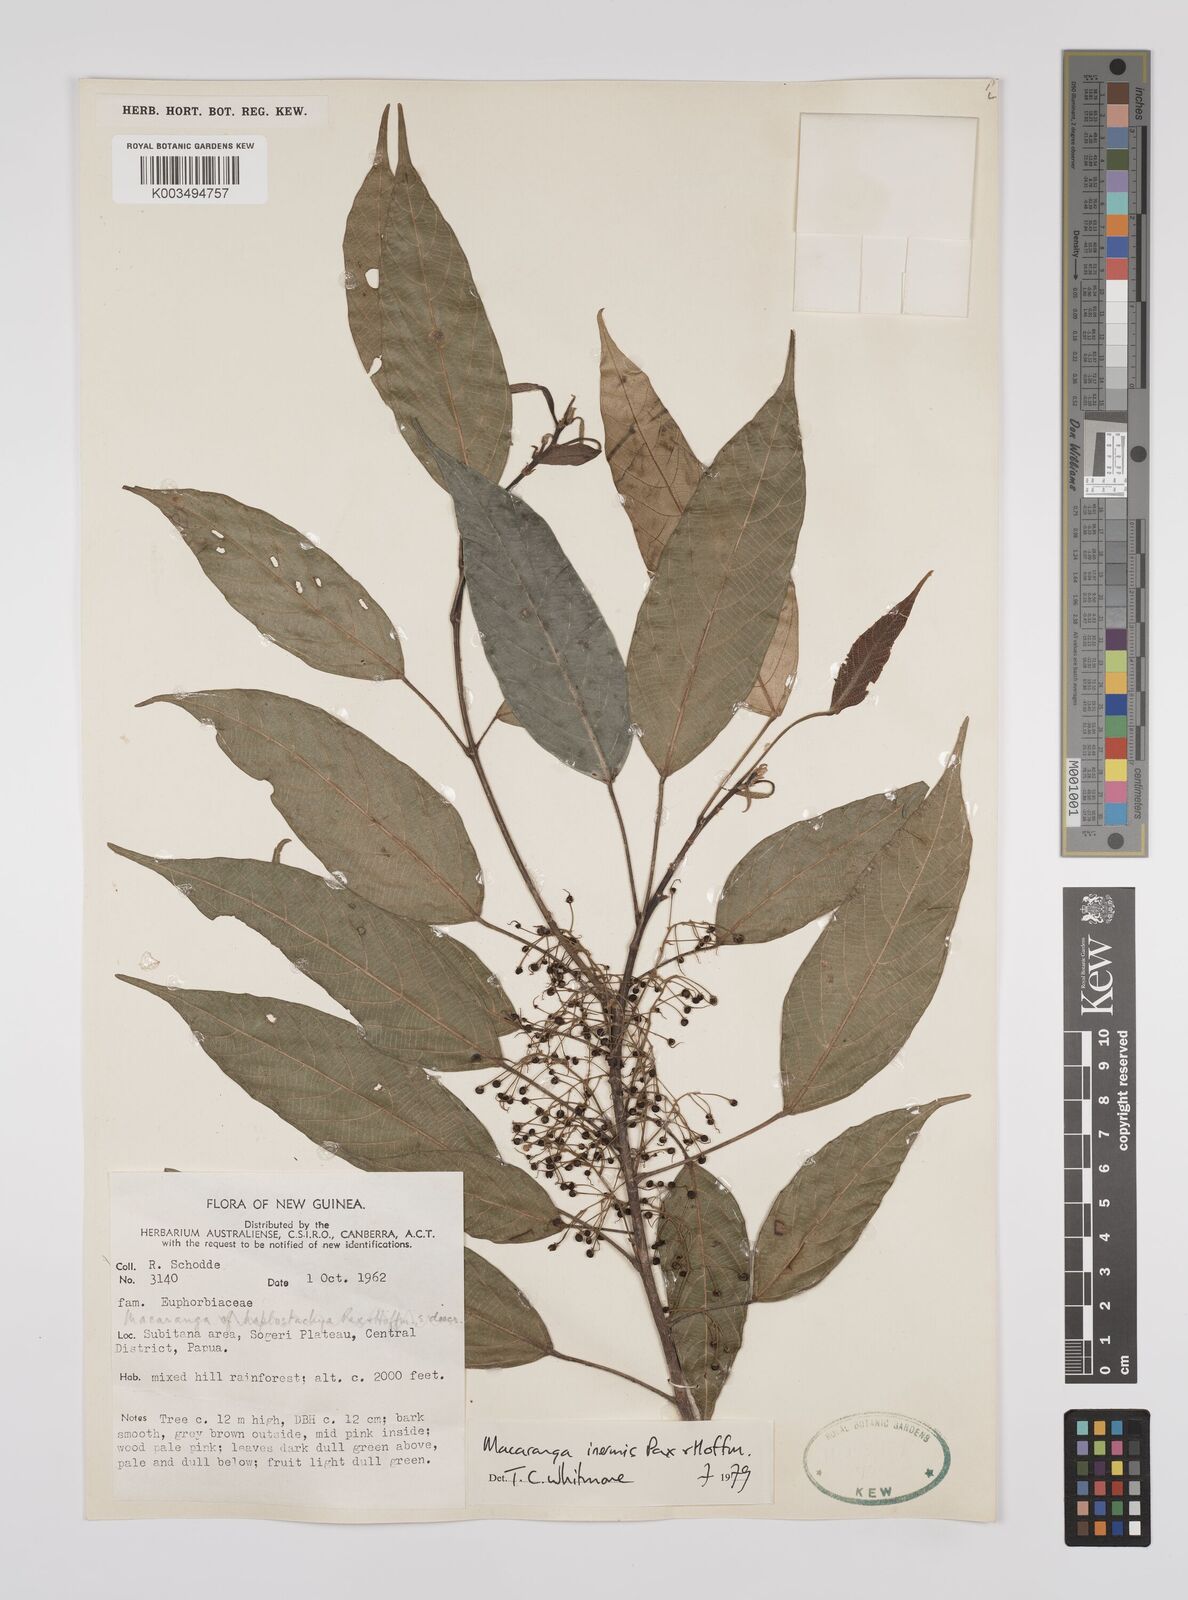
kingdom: Plantae
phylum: Tracheophyta
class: Magnoliopsida
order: Malpighiales
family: Euphorbiaceae
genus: Macaranga
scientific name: Macaranga inermis
